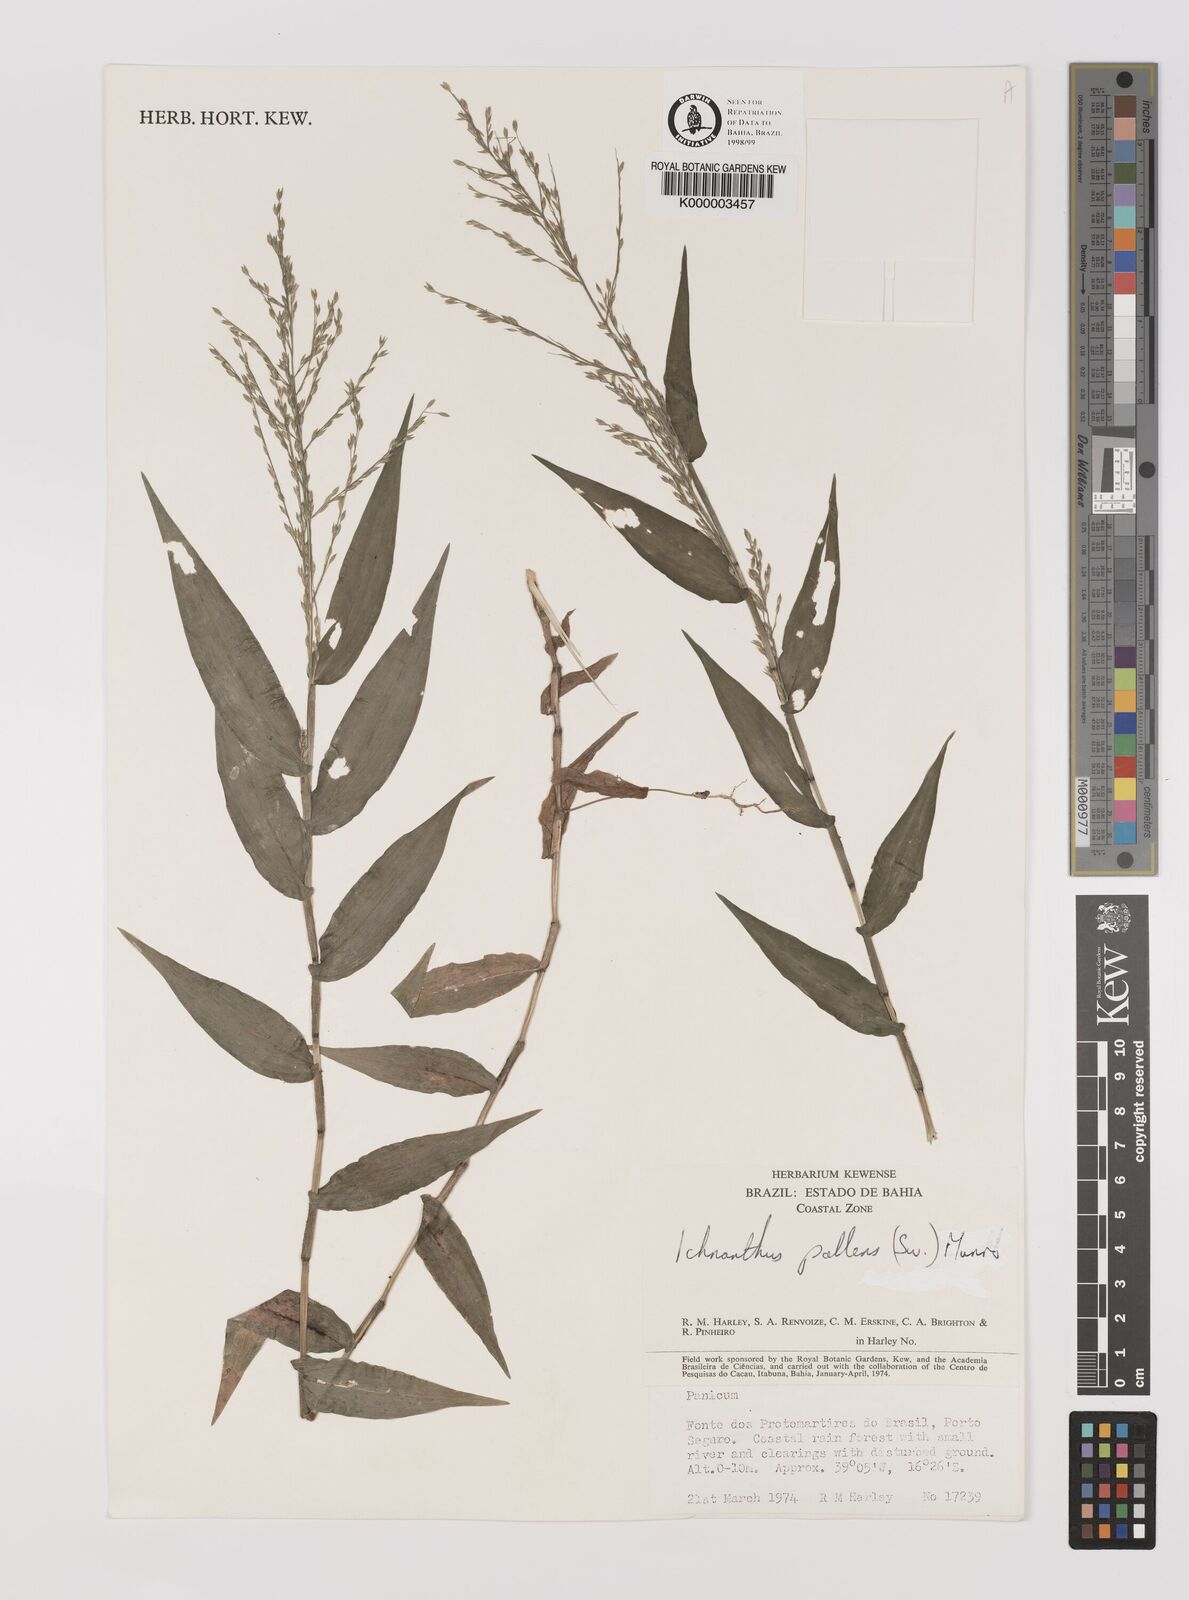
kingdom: Plantae
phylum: Tracheophyta
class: Liliopsida
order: Poales
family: Poaceae
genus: Ichnanthus
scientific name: Ichnanthus
